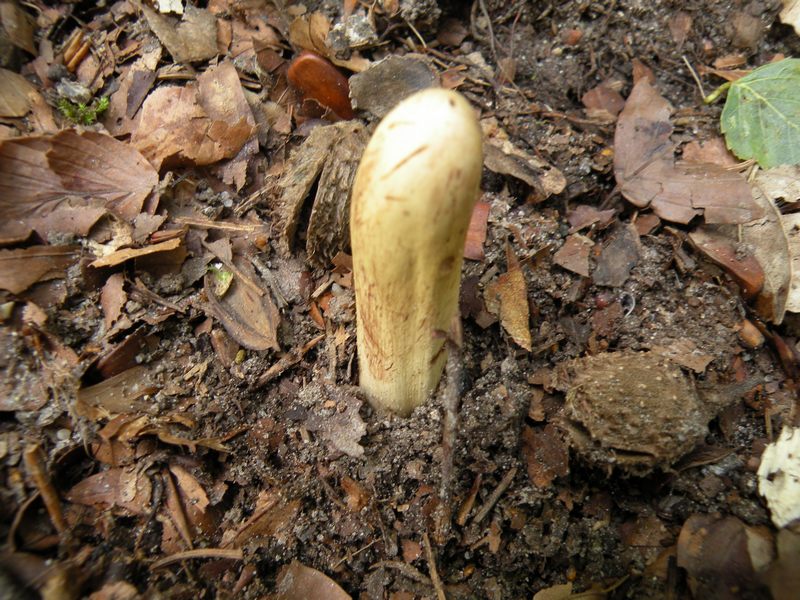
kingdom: Fungi
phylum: Basidiomycota
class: Agaricomycetes
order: Gomphales
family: Clavariadelphaceae
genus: Clavariadelphus
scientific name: Clavariadelphus pistillaris
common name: herkules-kæmpekølle
